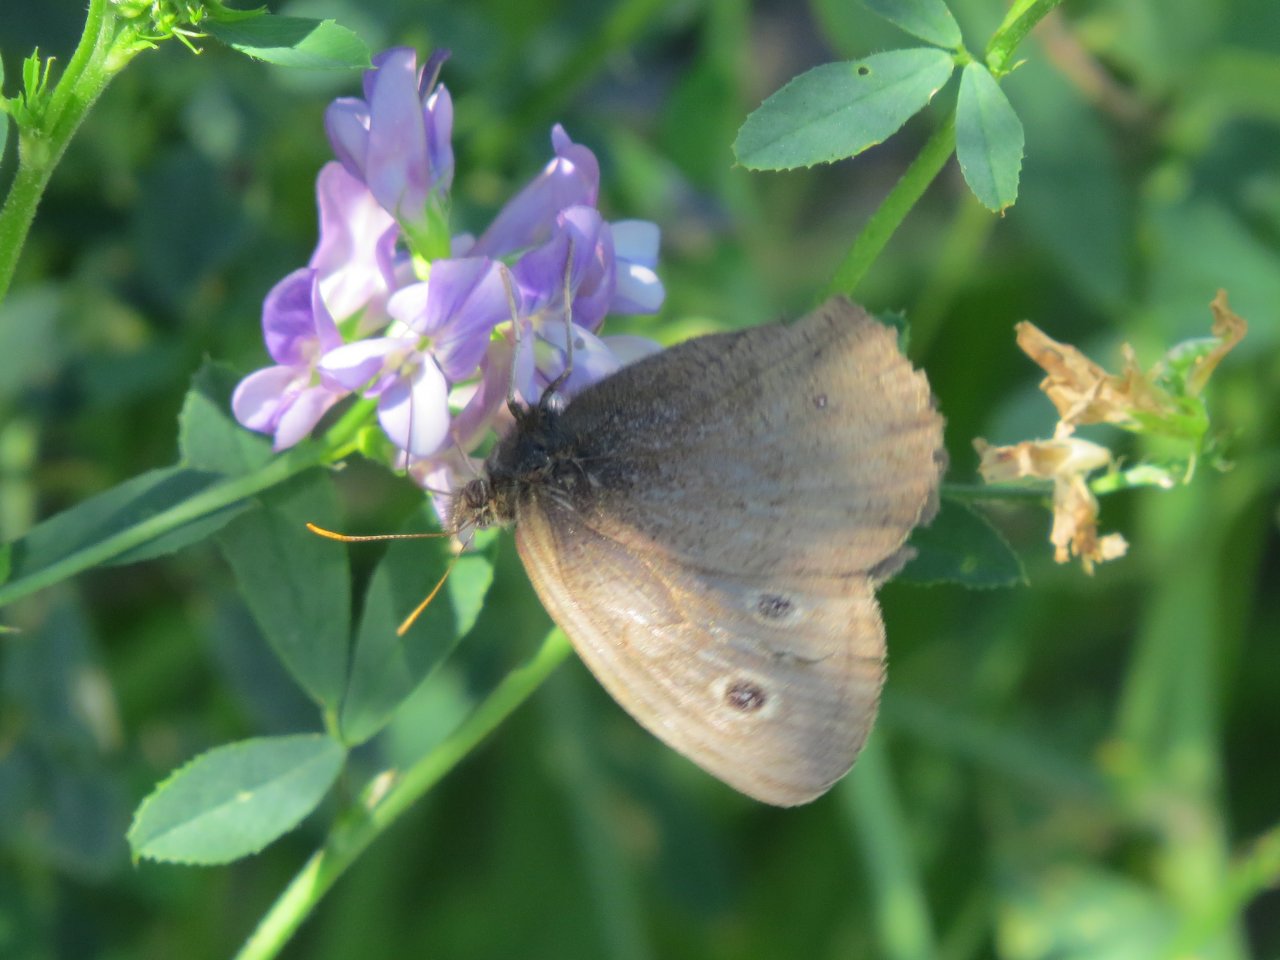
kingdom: Animalia
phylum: Arthropoda
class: Insecta
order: Lepidoptera
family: Nymphalidae
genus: Cercyonis
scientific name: Cercyonis oetus
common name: Small Wood-Nymph
